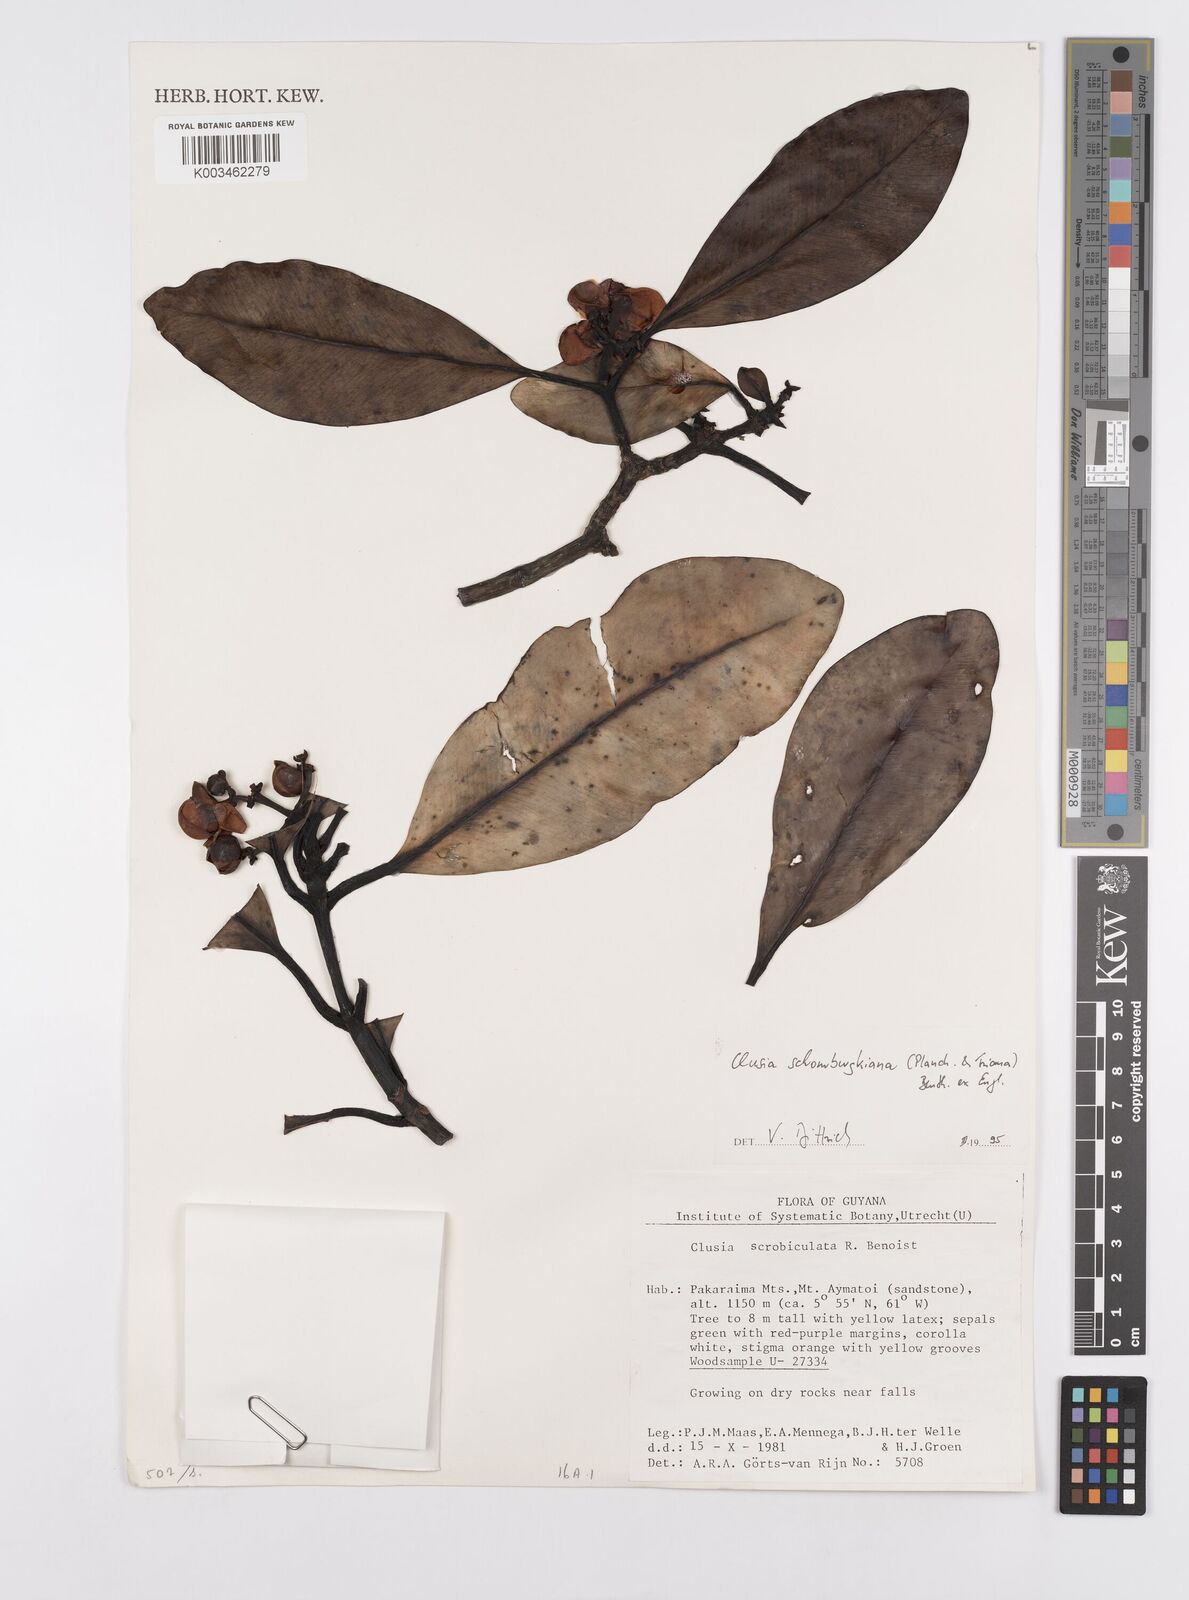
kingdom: Plantae
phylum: Tracheophyta
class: Magnoliopsida
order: Malpighiales
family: Clusiaceae
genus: Clusia
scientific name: Clusia schomburgkiana
